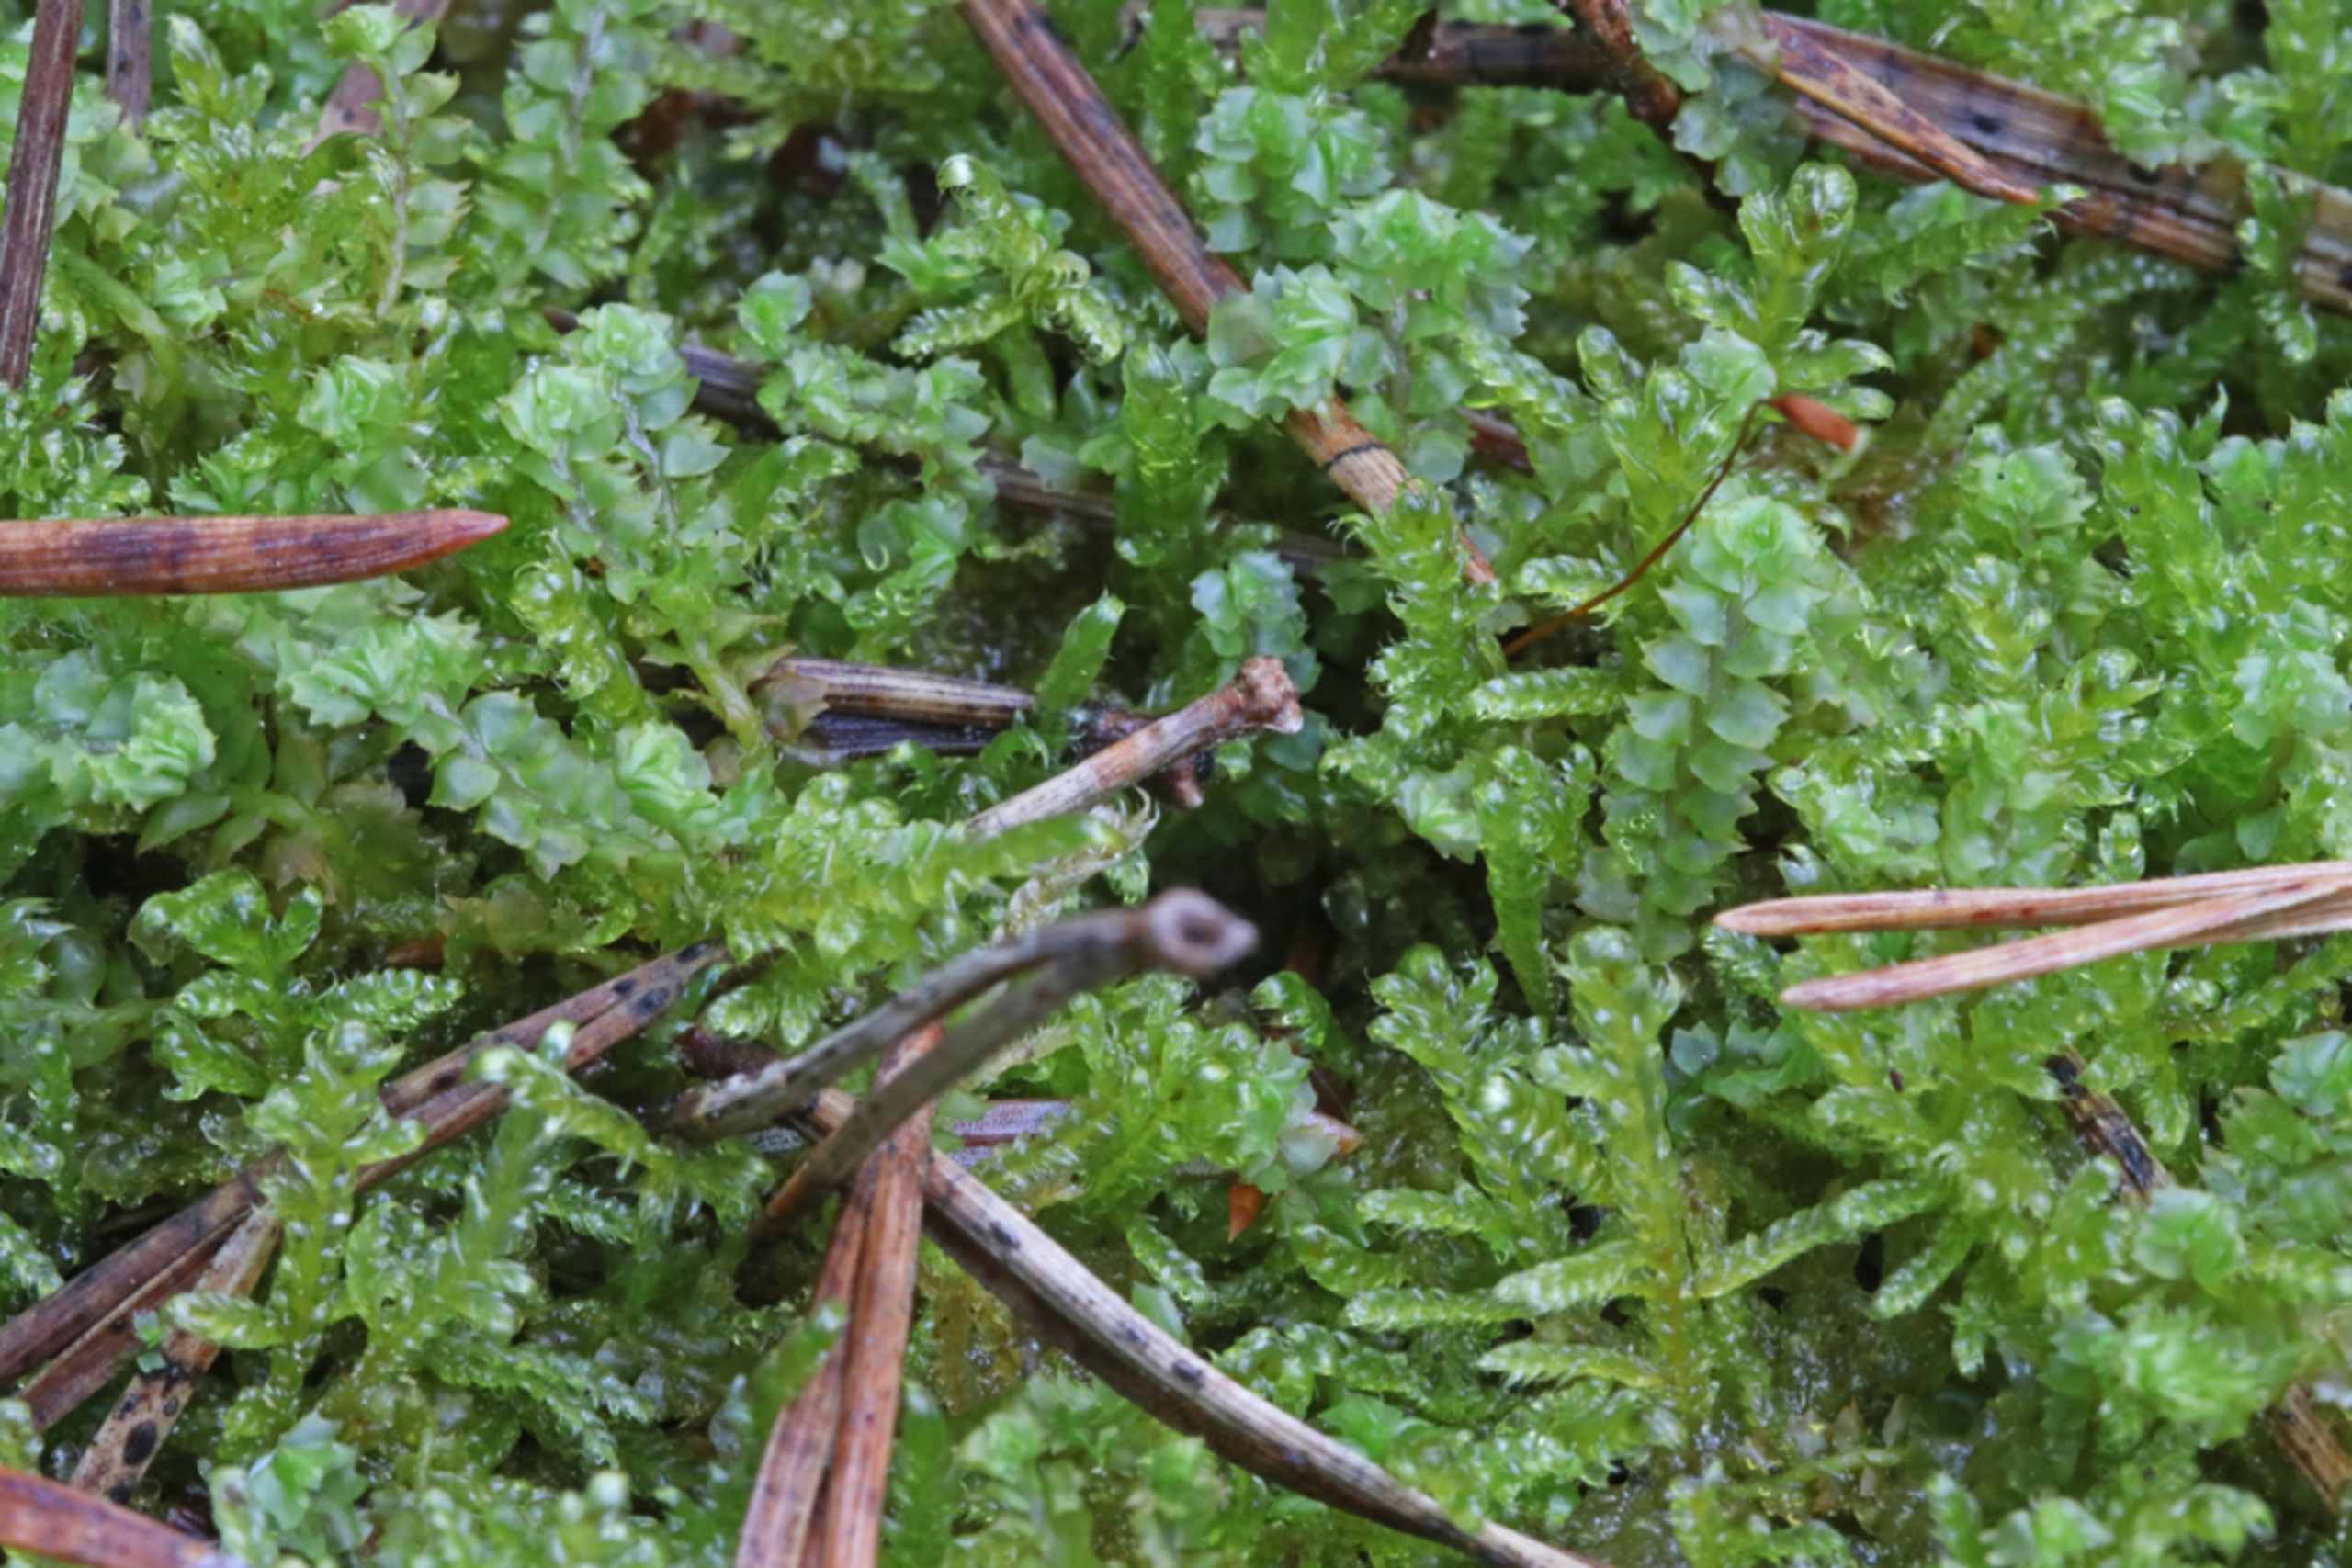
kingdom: Plantae
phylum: Marchantiophyta
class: Jungermanniopsida
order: Jungermanniales
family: Anastrophyllaceae
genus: Barbilophozia
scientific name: Barbilophozia barbata
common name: Skægget flerfligmos
